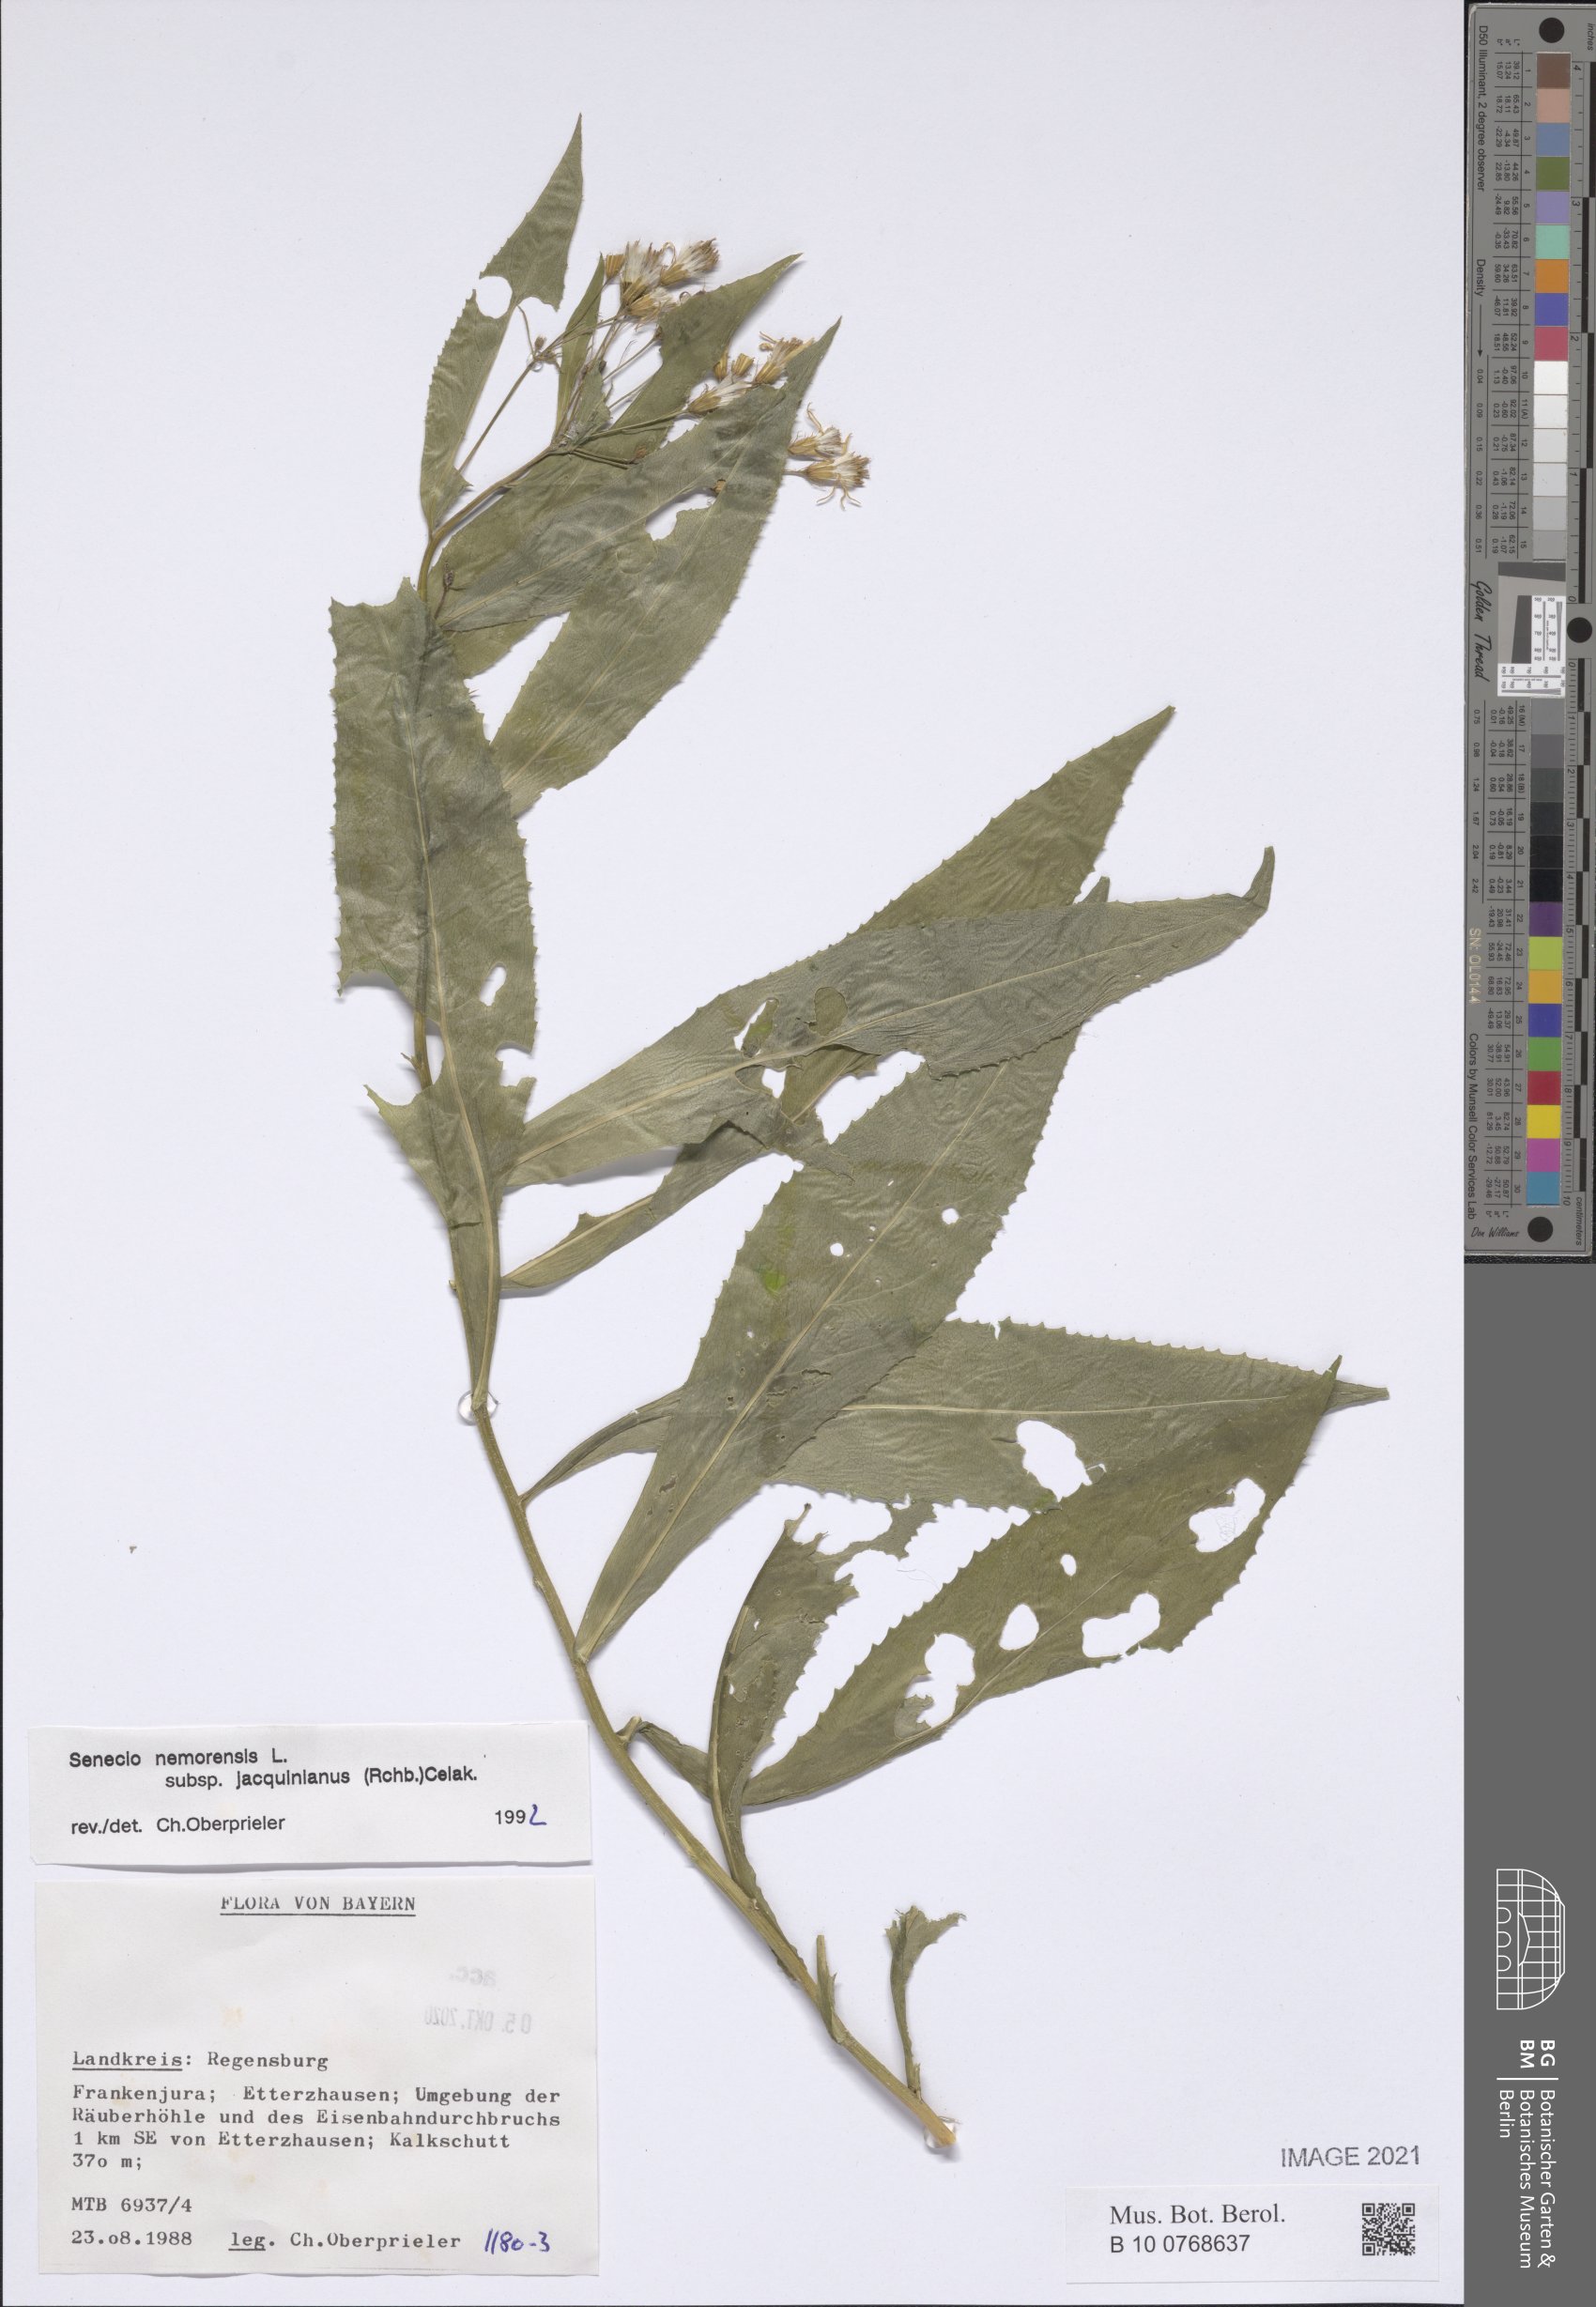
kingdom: Plantae
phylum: Tracheophyta
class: Magnoliopsida
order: Asterales
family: Asteraceae
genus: Senecio
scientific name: Senecio germanicus
